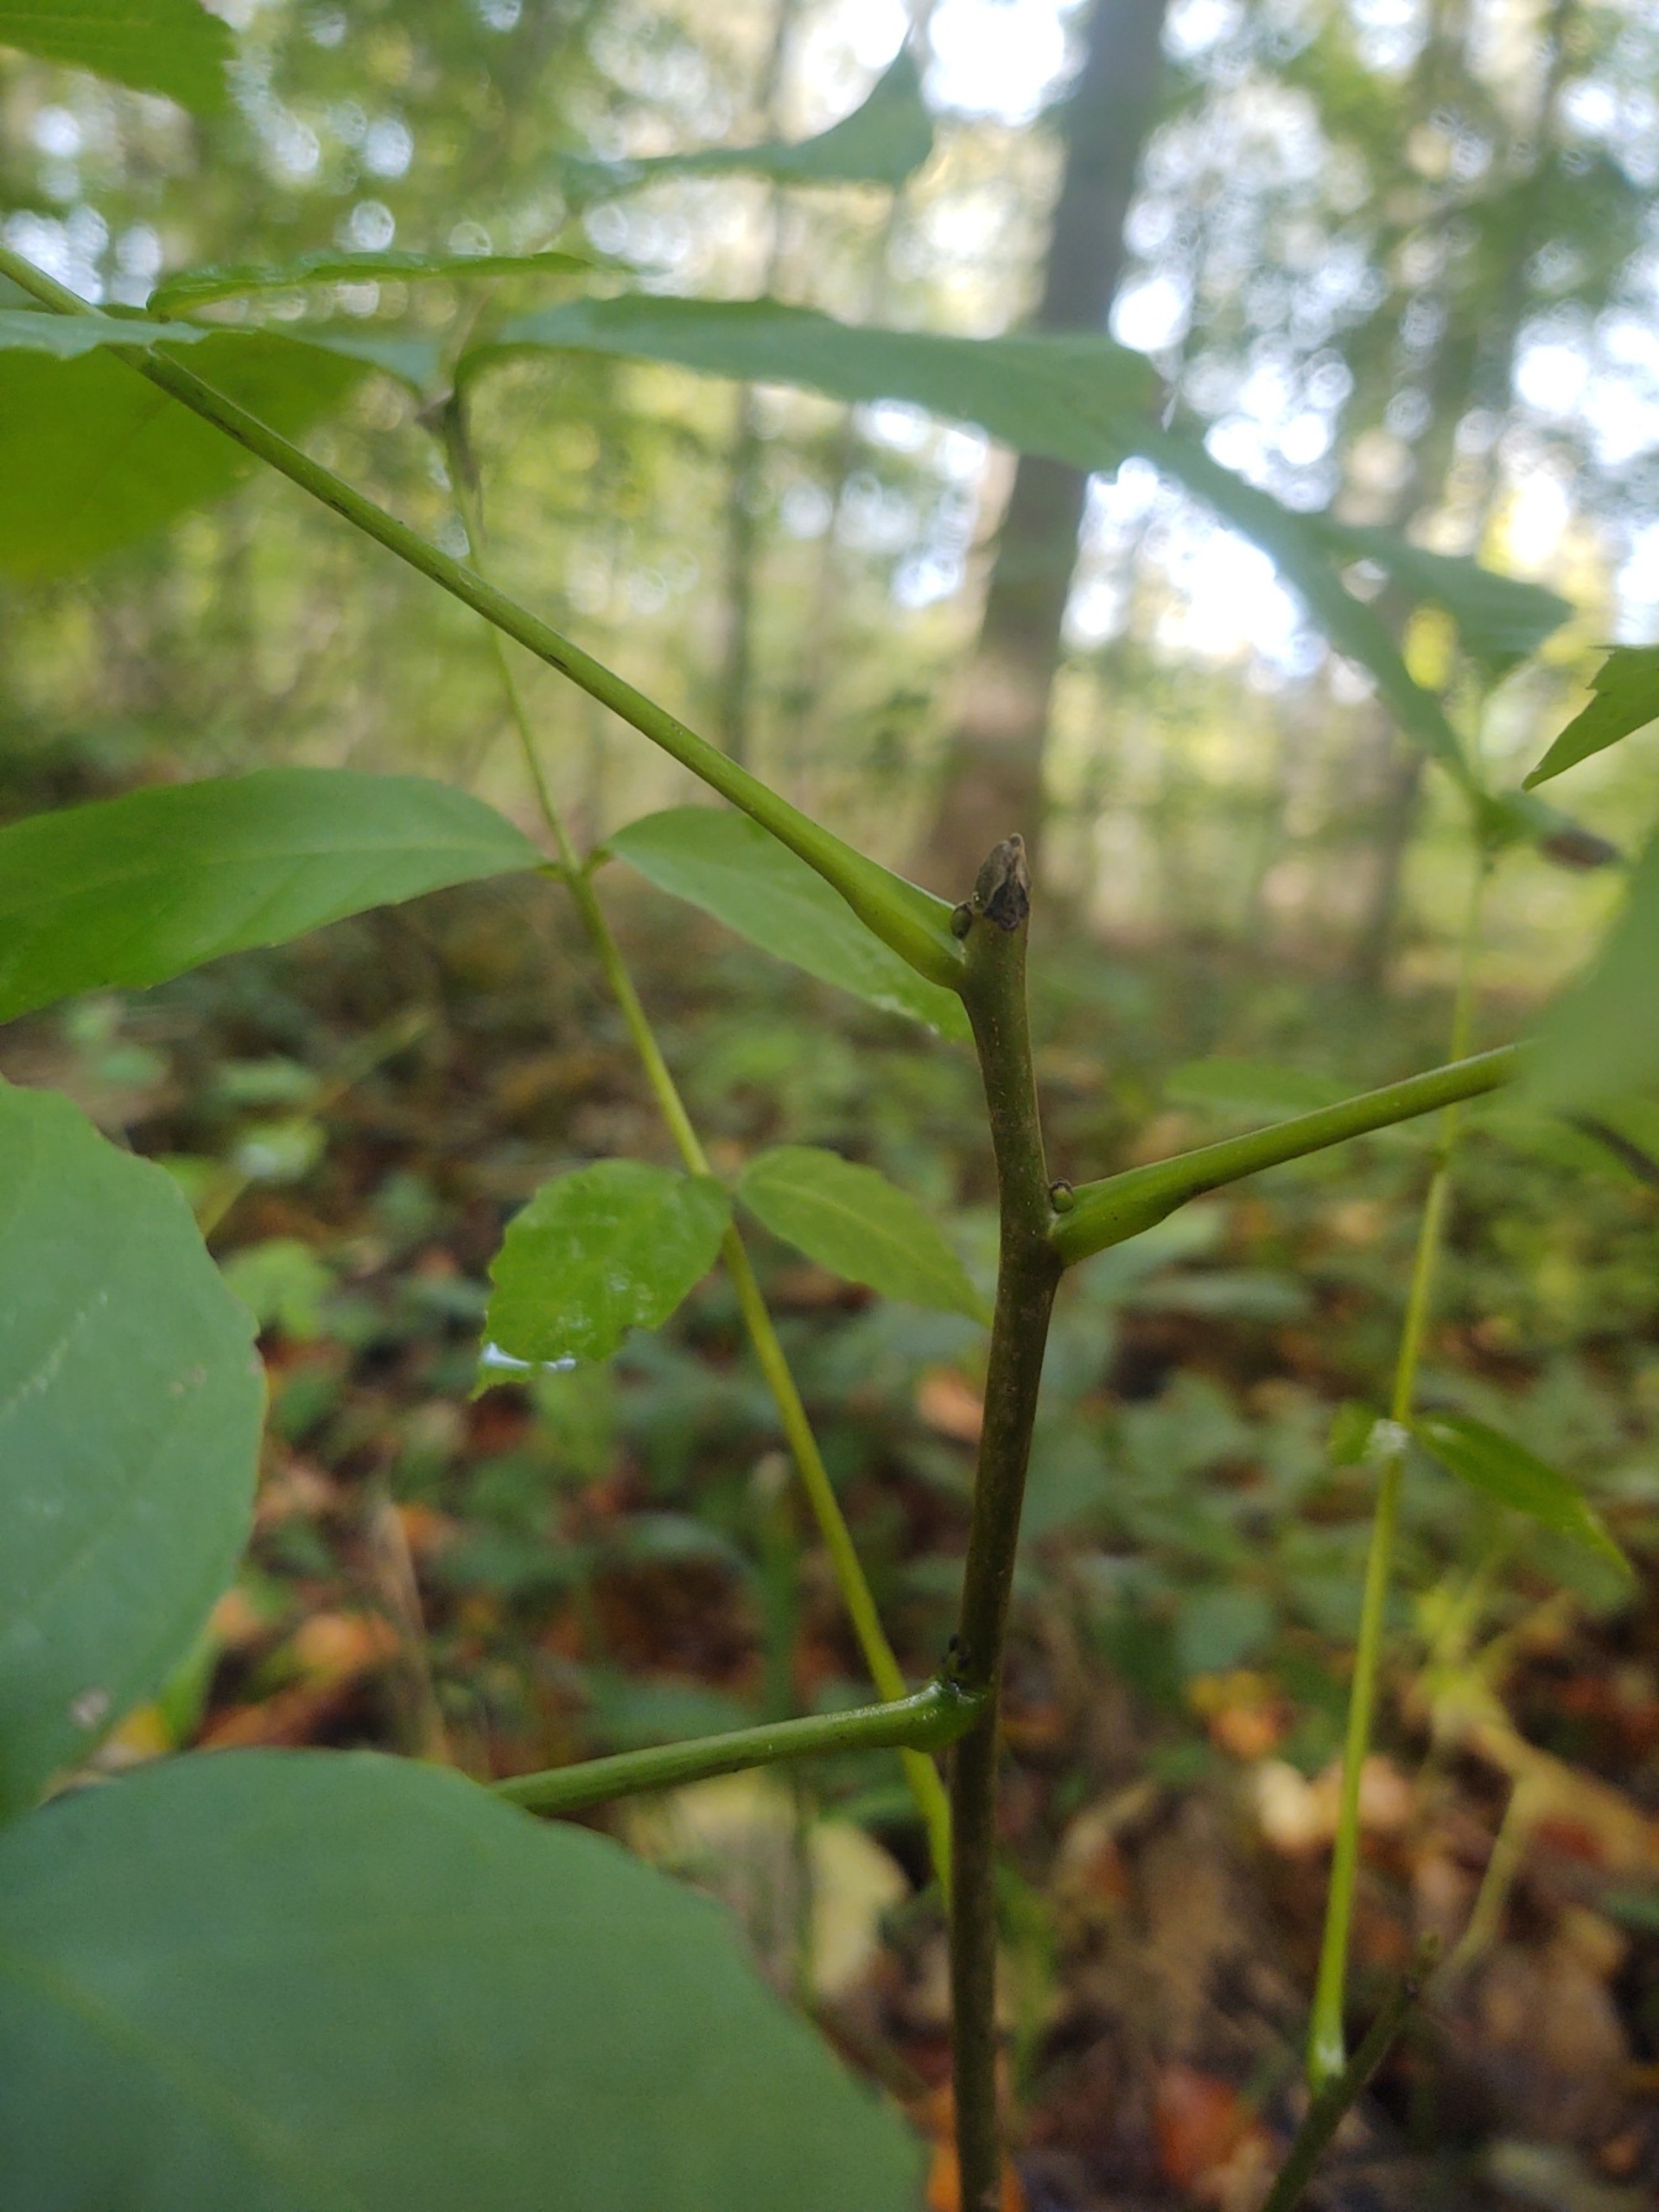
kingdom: Plantae
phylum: Tracheophyta
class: Magnoliopsida
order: Fagales
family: Juglandaceae
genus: Juglans
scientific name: Juglans regia
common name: Almindelig valnød
